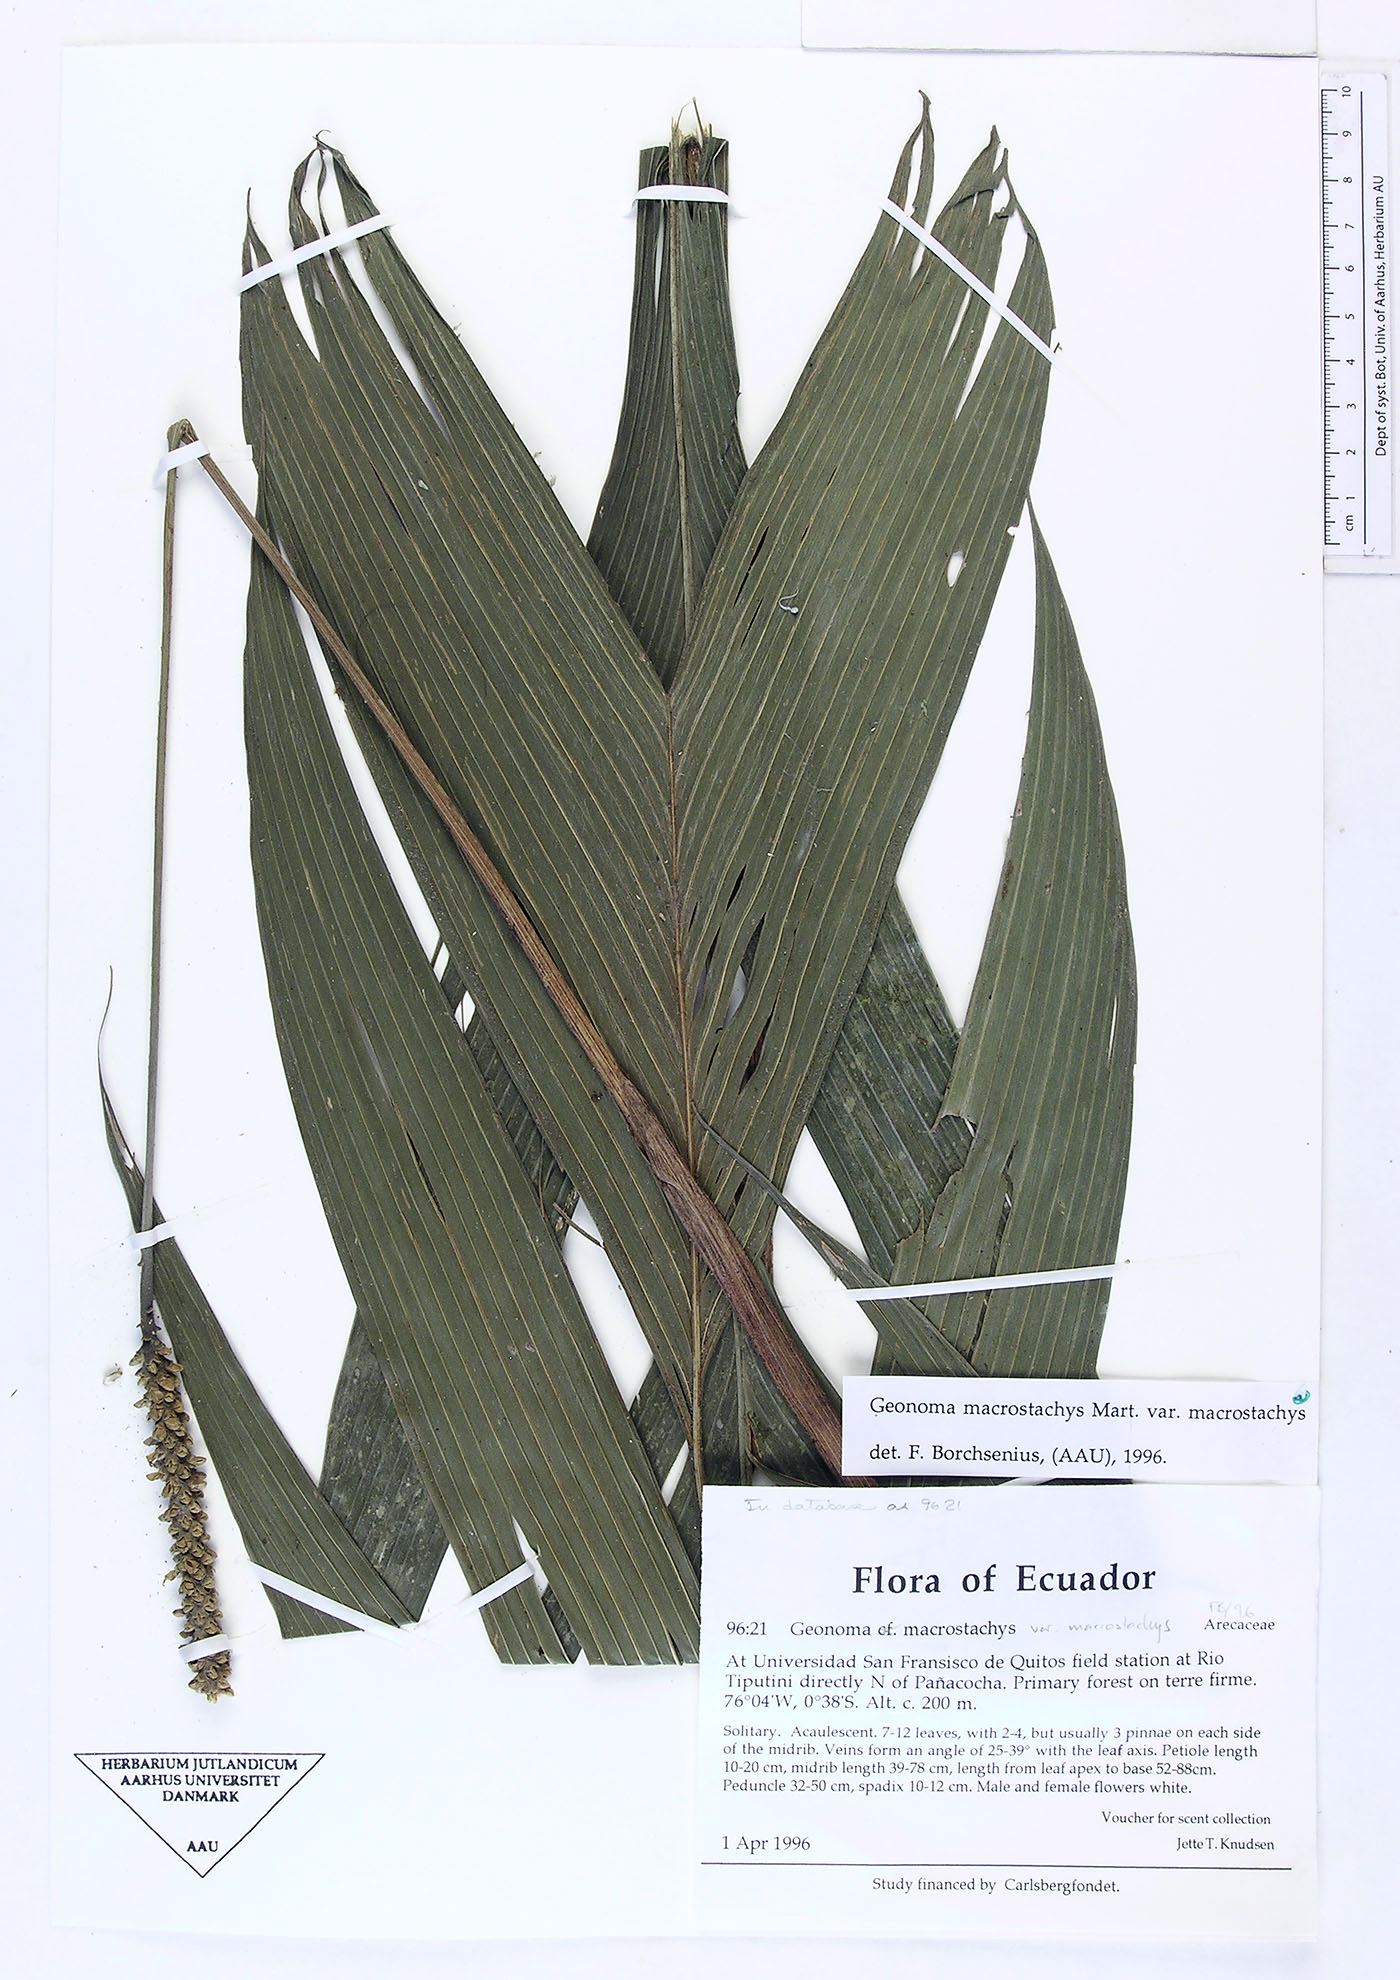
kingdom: Plantae
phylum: Tracheophyta
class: Liliopsida
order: Arecales
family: Arecaceae
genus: Geonoma
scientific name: Geonoma macrostachys
